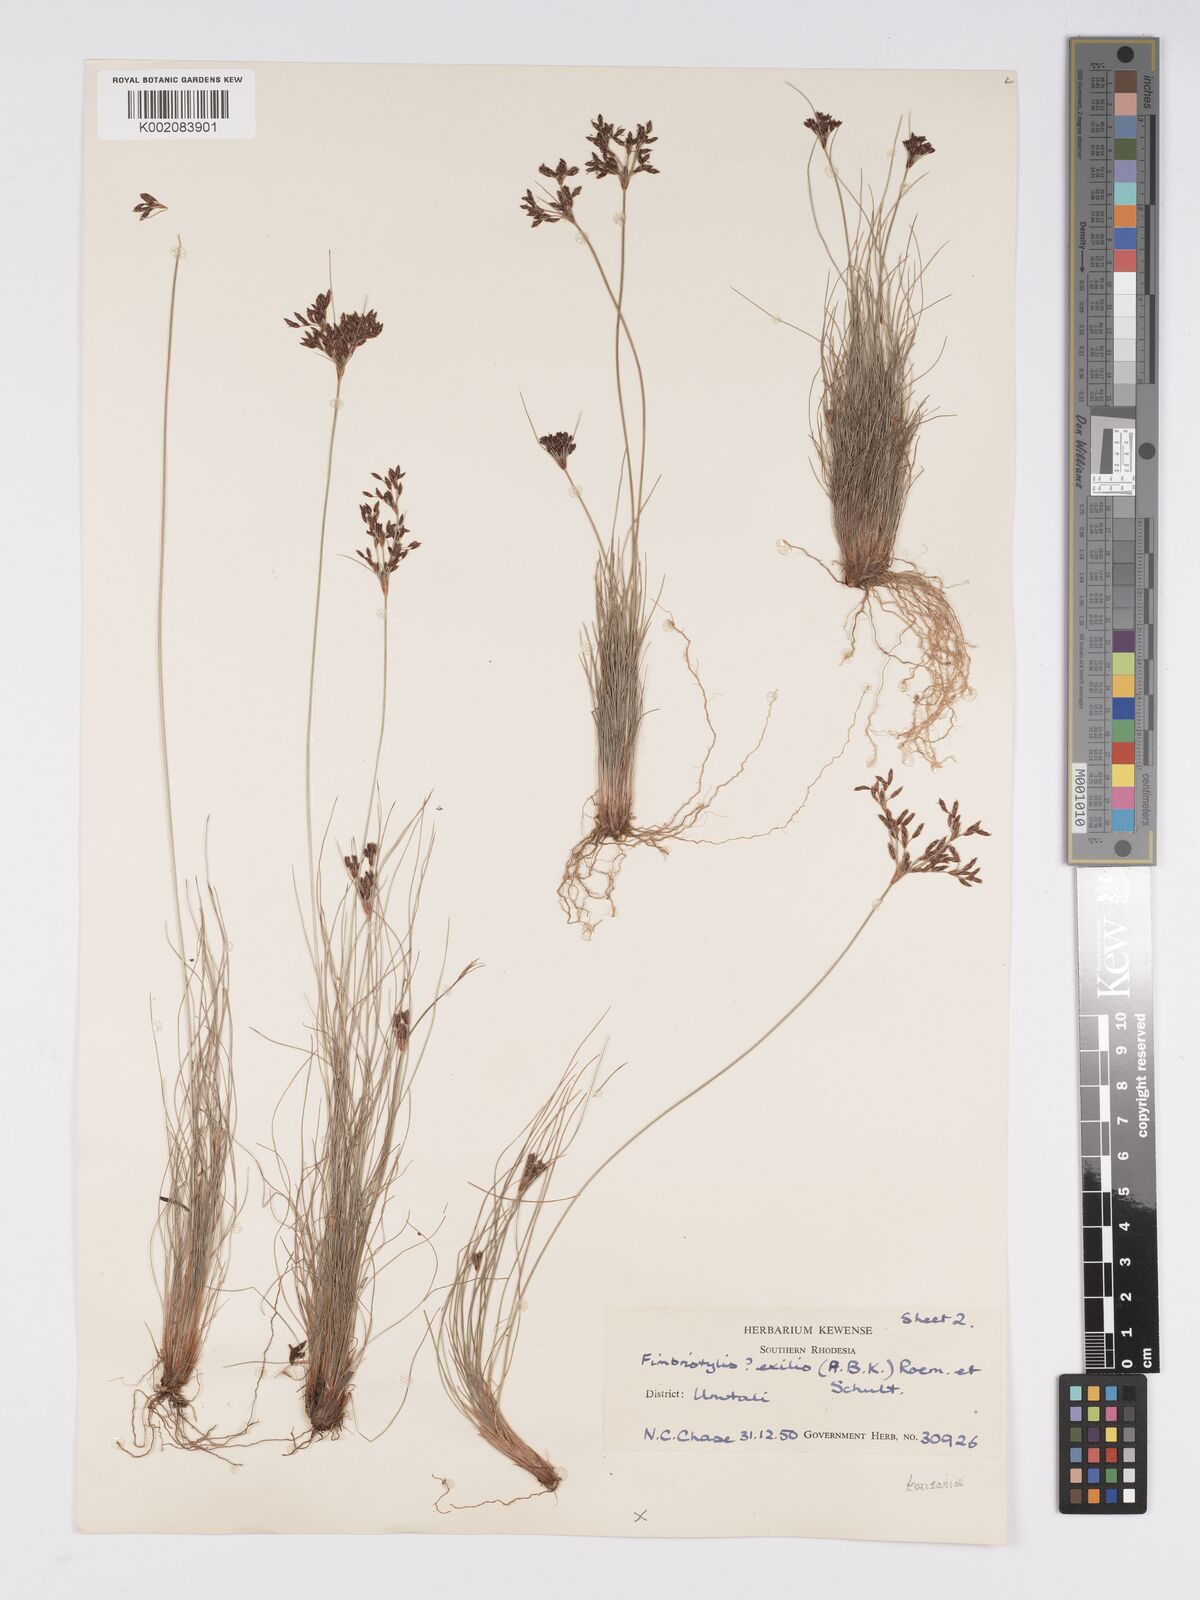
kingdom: Plantae
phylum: Tracheophyta
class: Liliopsida
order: Poales
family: Cyperaceae
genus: Bulbostylis
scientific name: Bulbostylis hispidula
